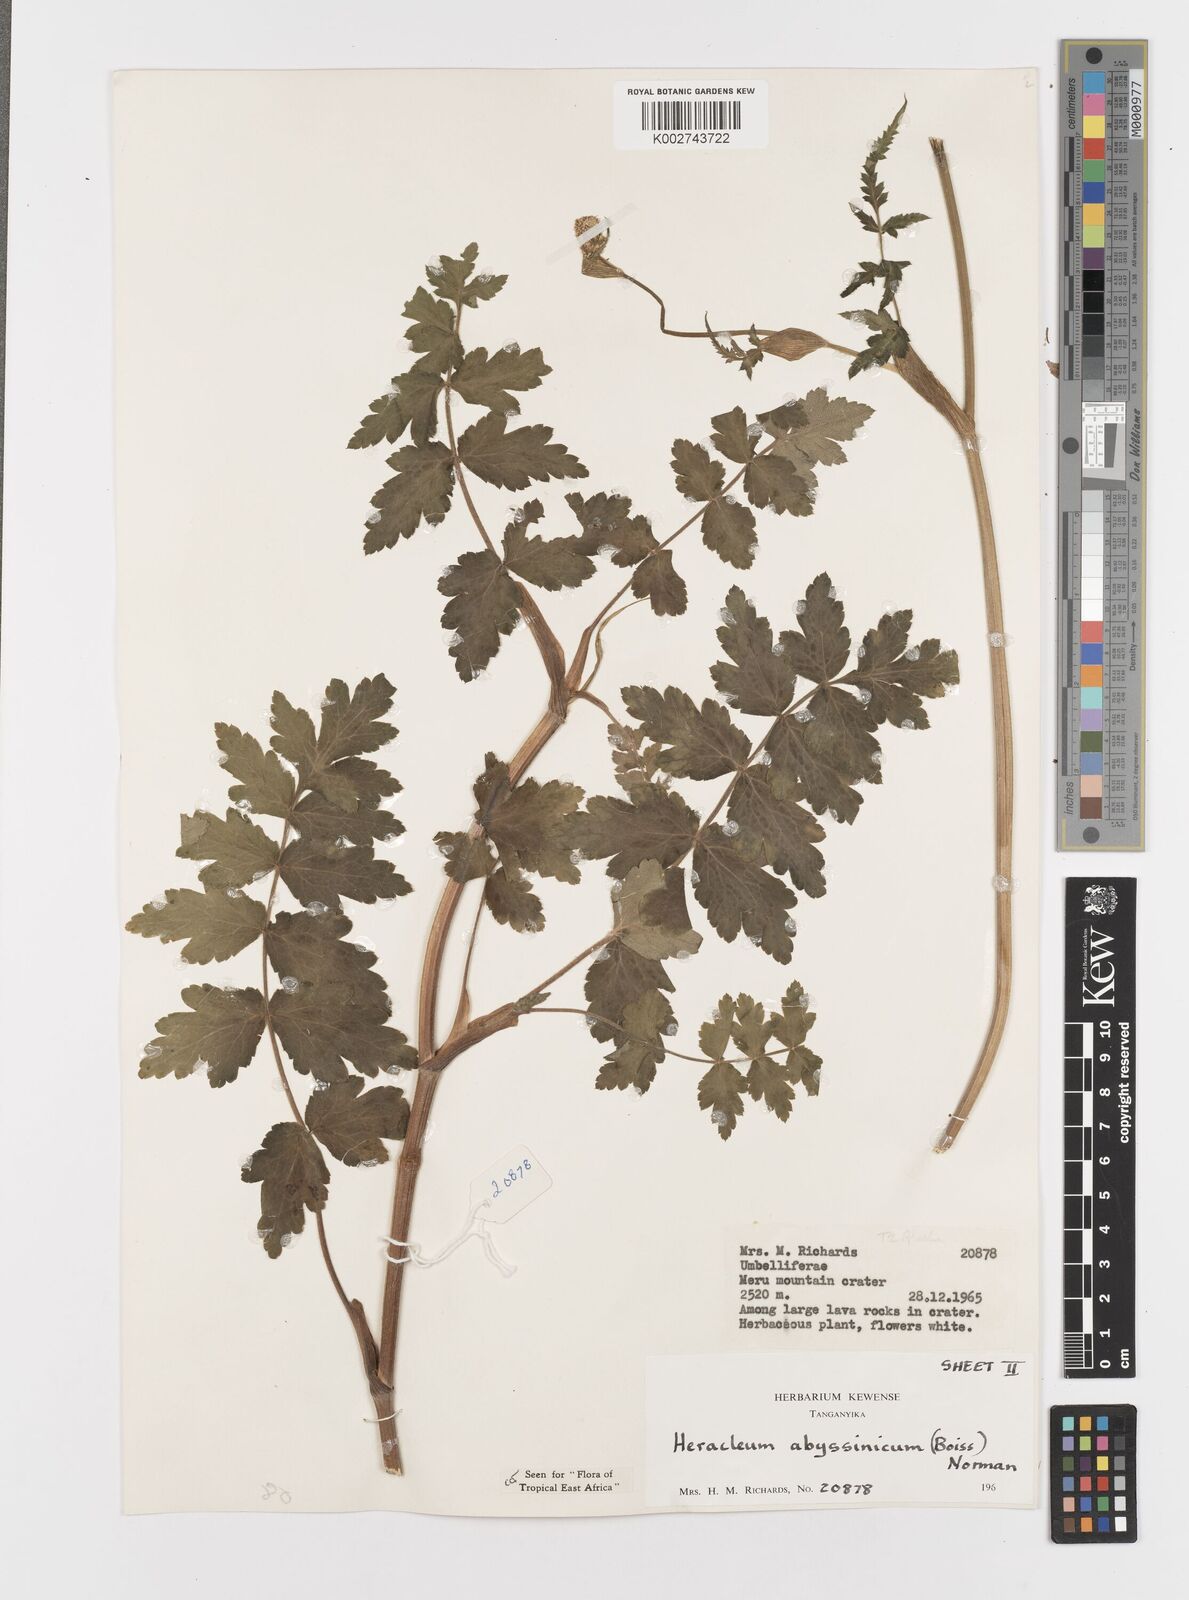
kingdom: Plantae
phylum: Tracheophyta
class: Magnoliopsida
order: Apiales
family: Apiaceae
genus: Heracleum
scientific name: Heracleum abyssinicum
